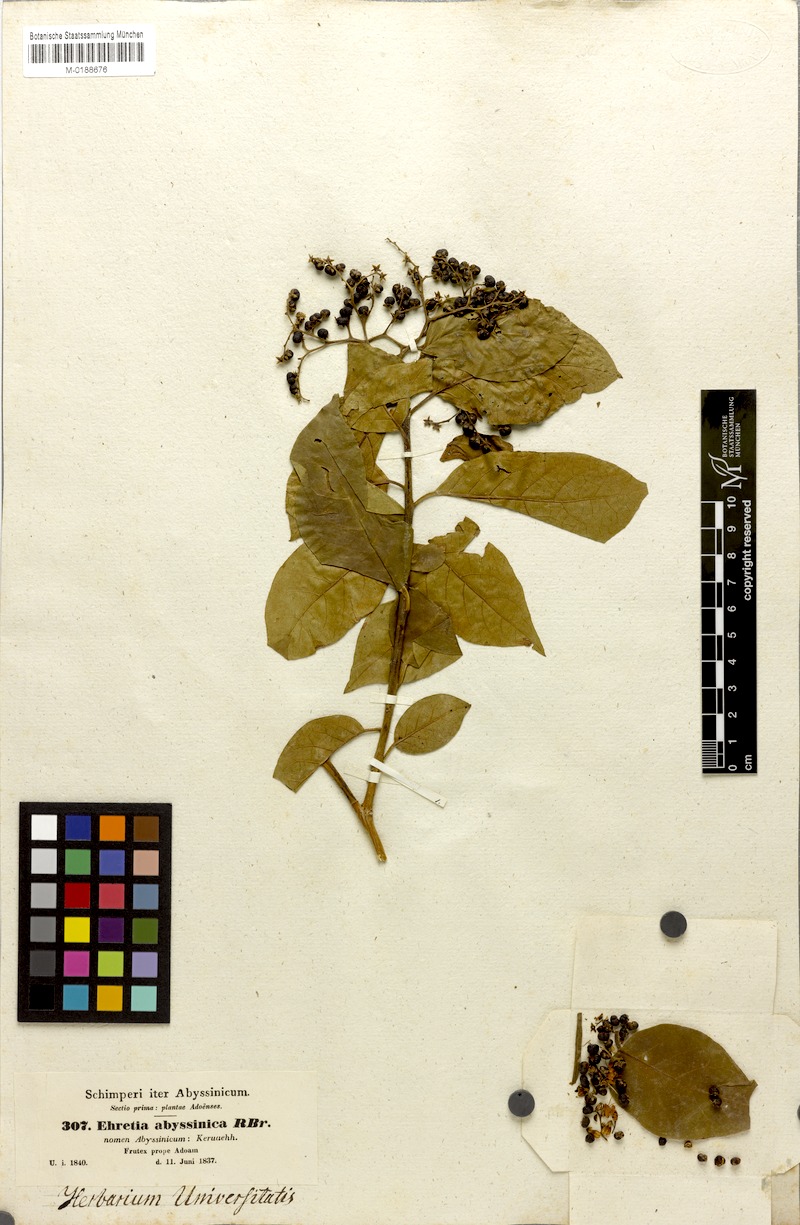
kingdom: Plantae
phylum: Tracheophyta
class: Magnoliopsida
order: Boraginales
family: Ehretiaceae
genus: Ehretia
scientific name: Ehretia cymosa
